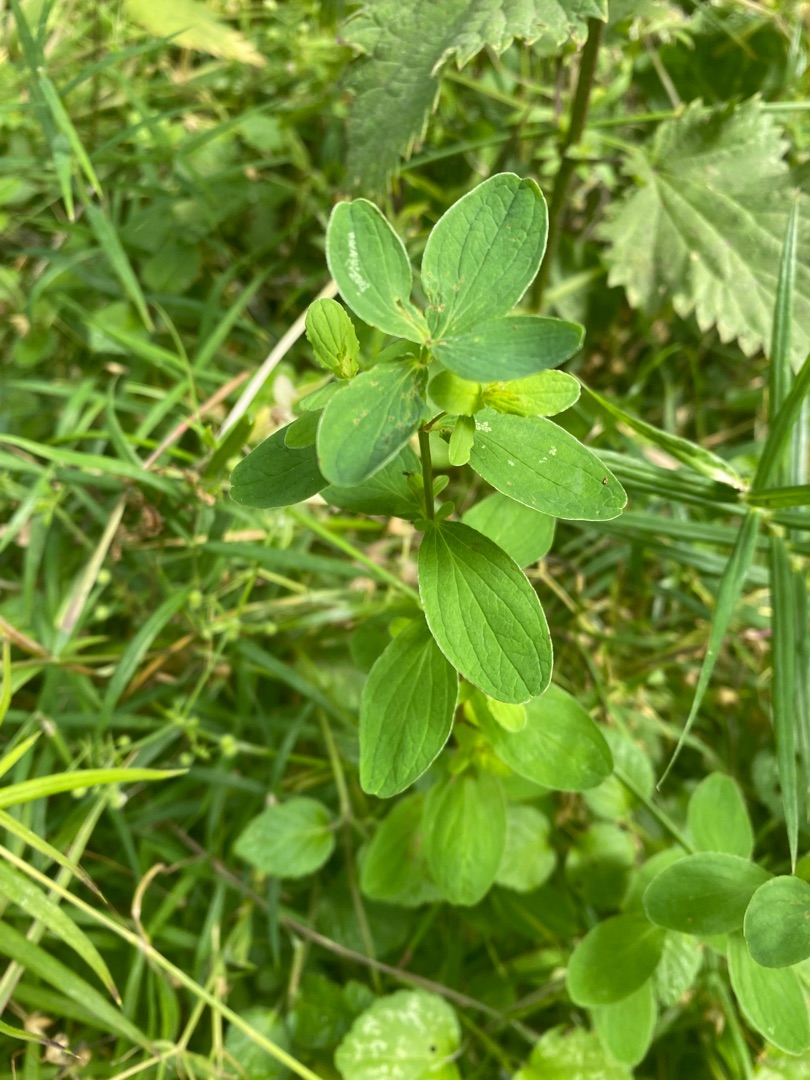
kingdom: Plantae
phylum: Tracheophyta
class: Magnoliopsida
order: Malpighiales
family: Hypericaceae
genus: Hypericum
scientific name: Hypericum
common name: Perikonslægten
